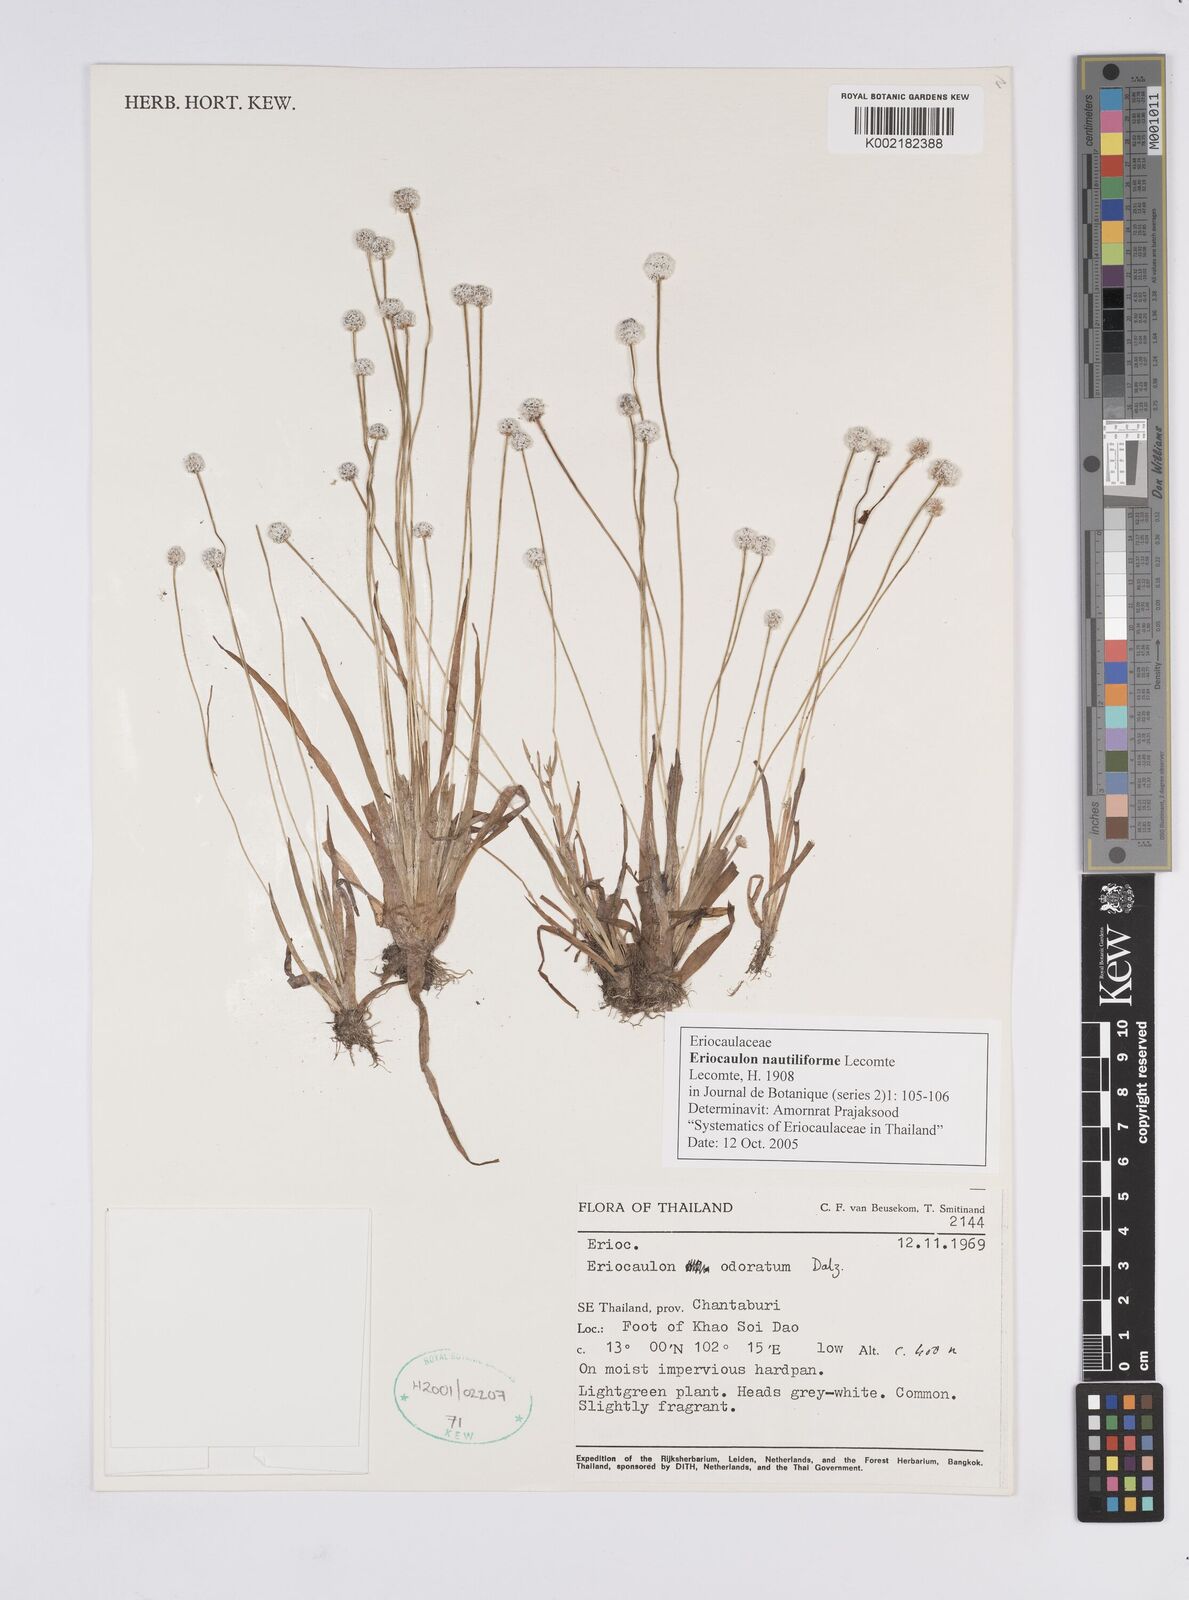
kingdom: Plantae
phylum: Tracheophyta
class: Liliopsida
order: Poales
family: Eriocaulaceae
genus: Eriocaulon
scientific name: Eriocaulon nautiliforme
